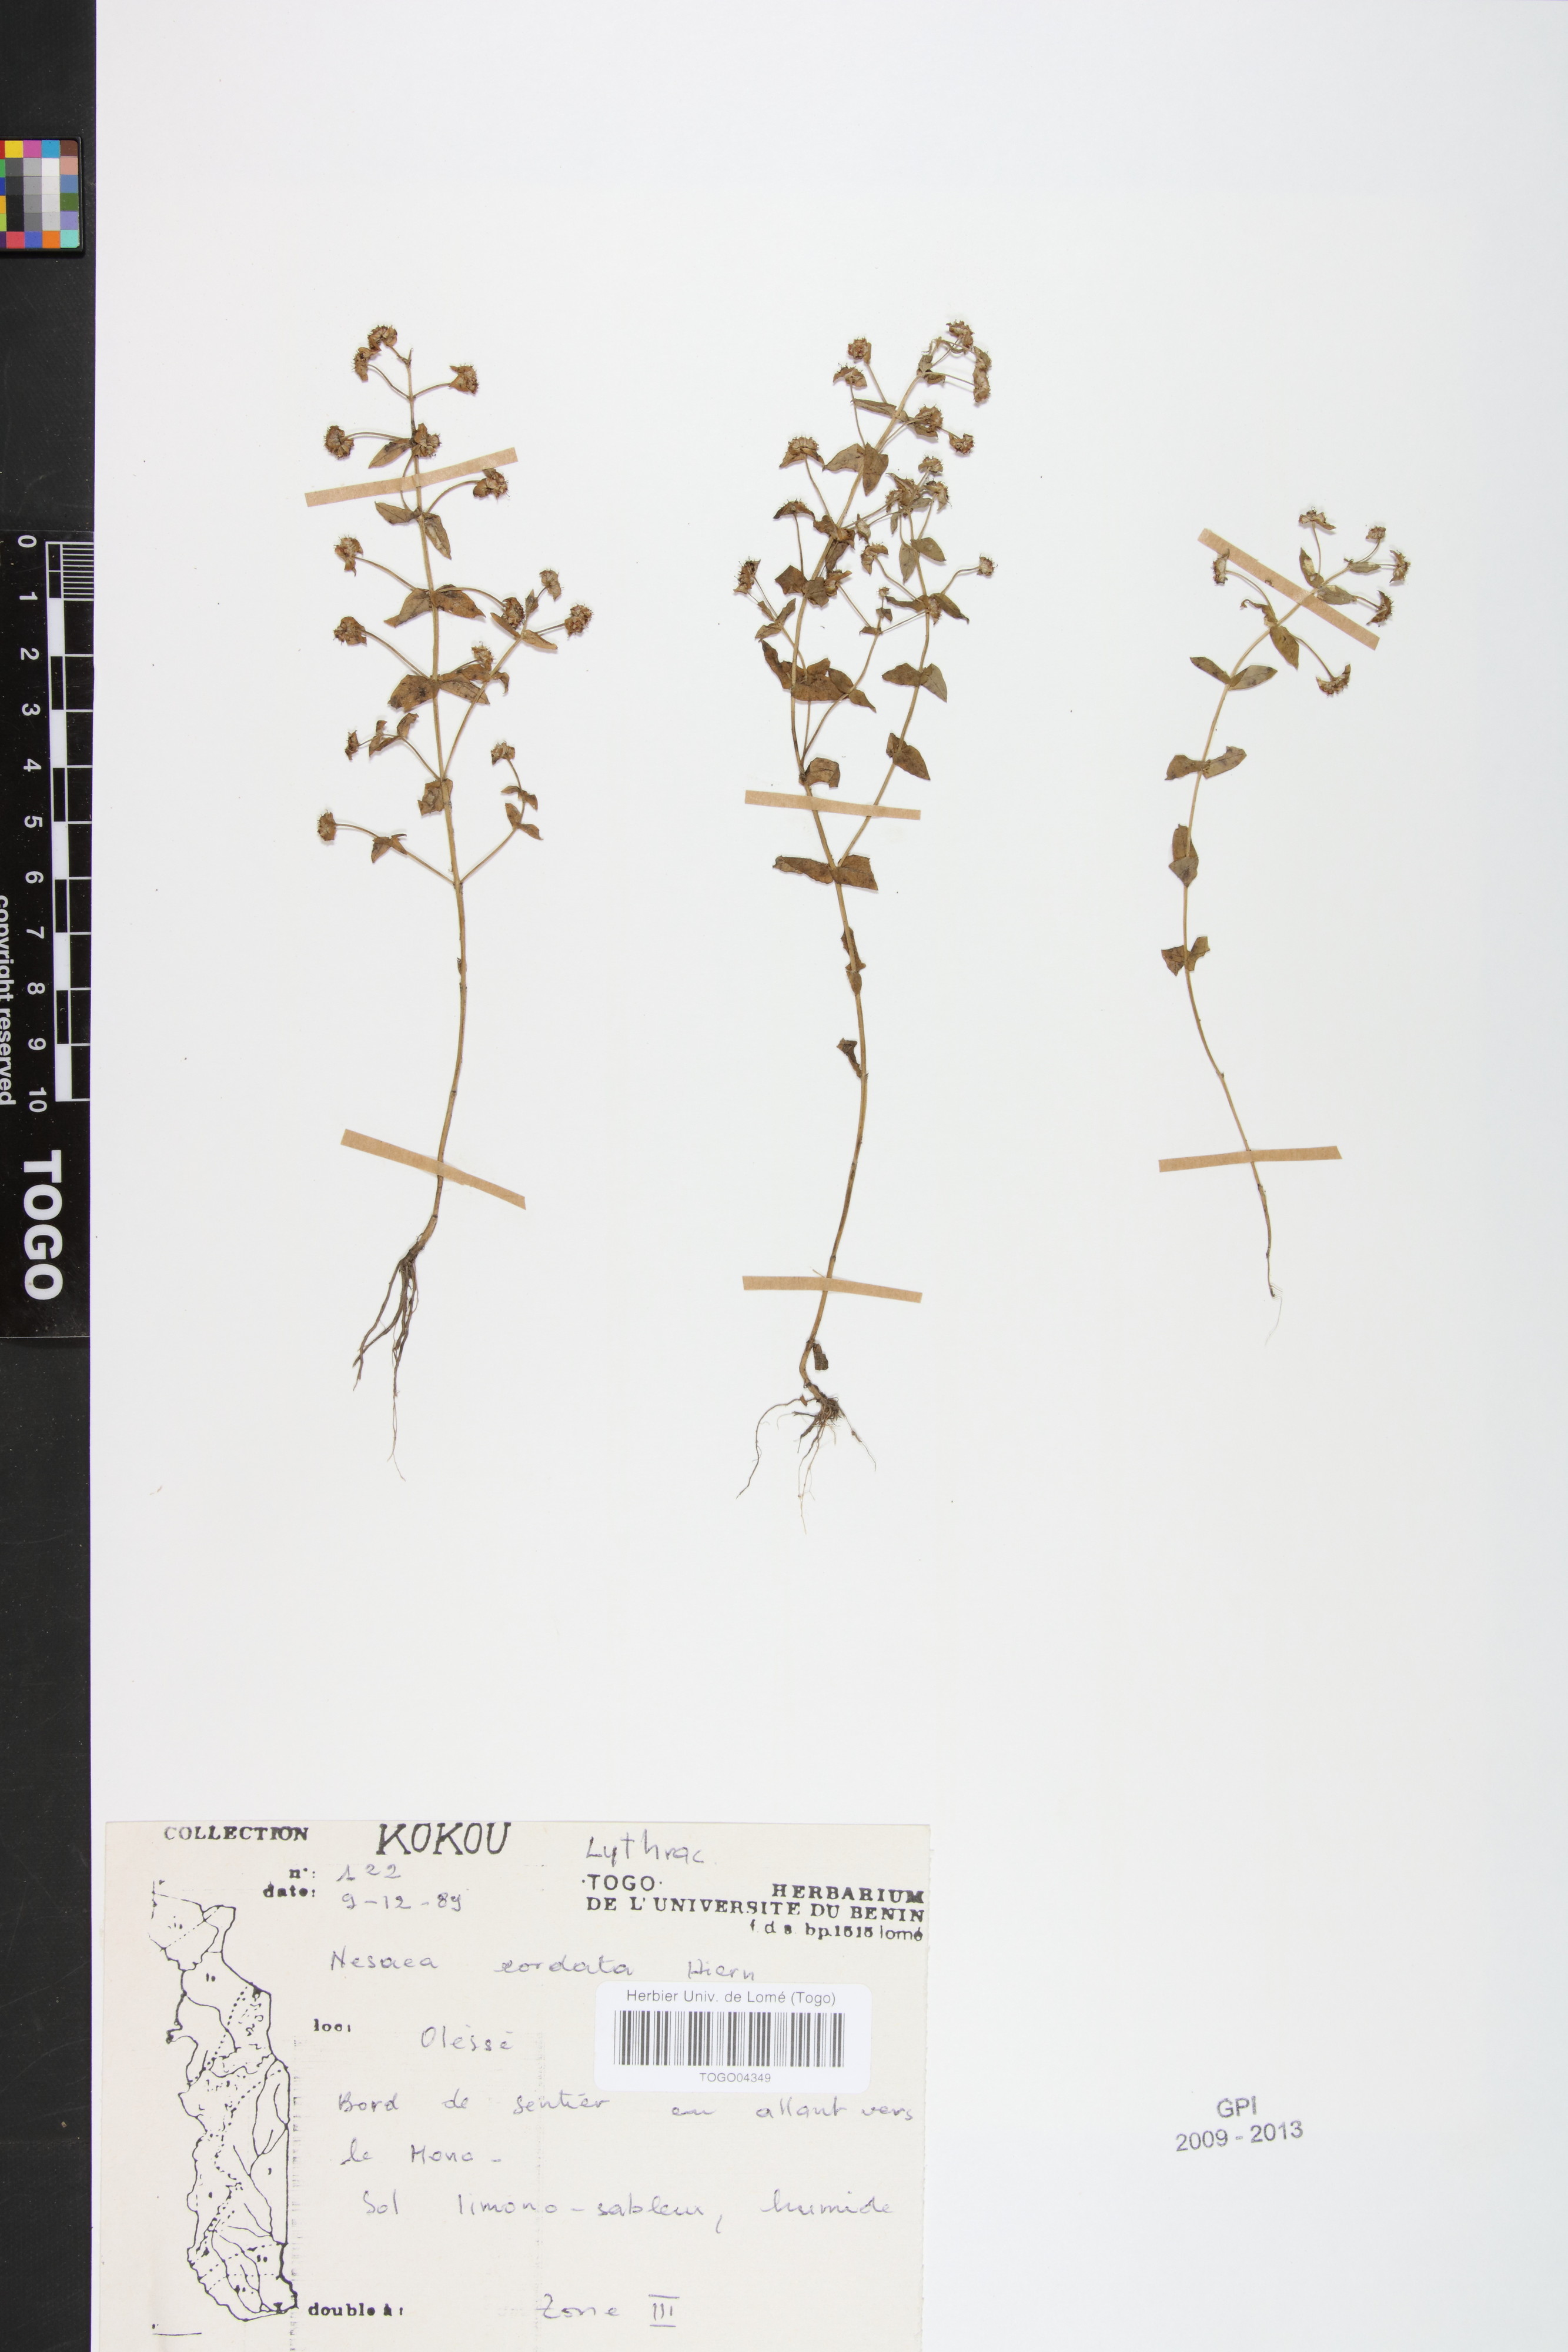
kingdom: Plantae
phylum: Tracheophyta
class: Magnoliopsida
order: Myrtales
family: Lythraceae
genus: Ammannia
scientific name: Ammannia involucrata
